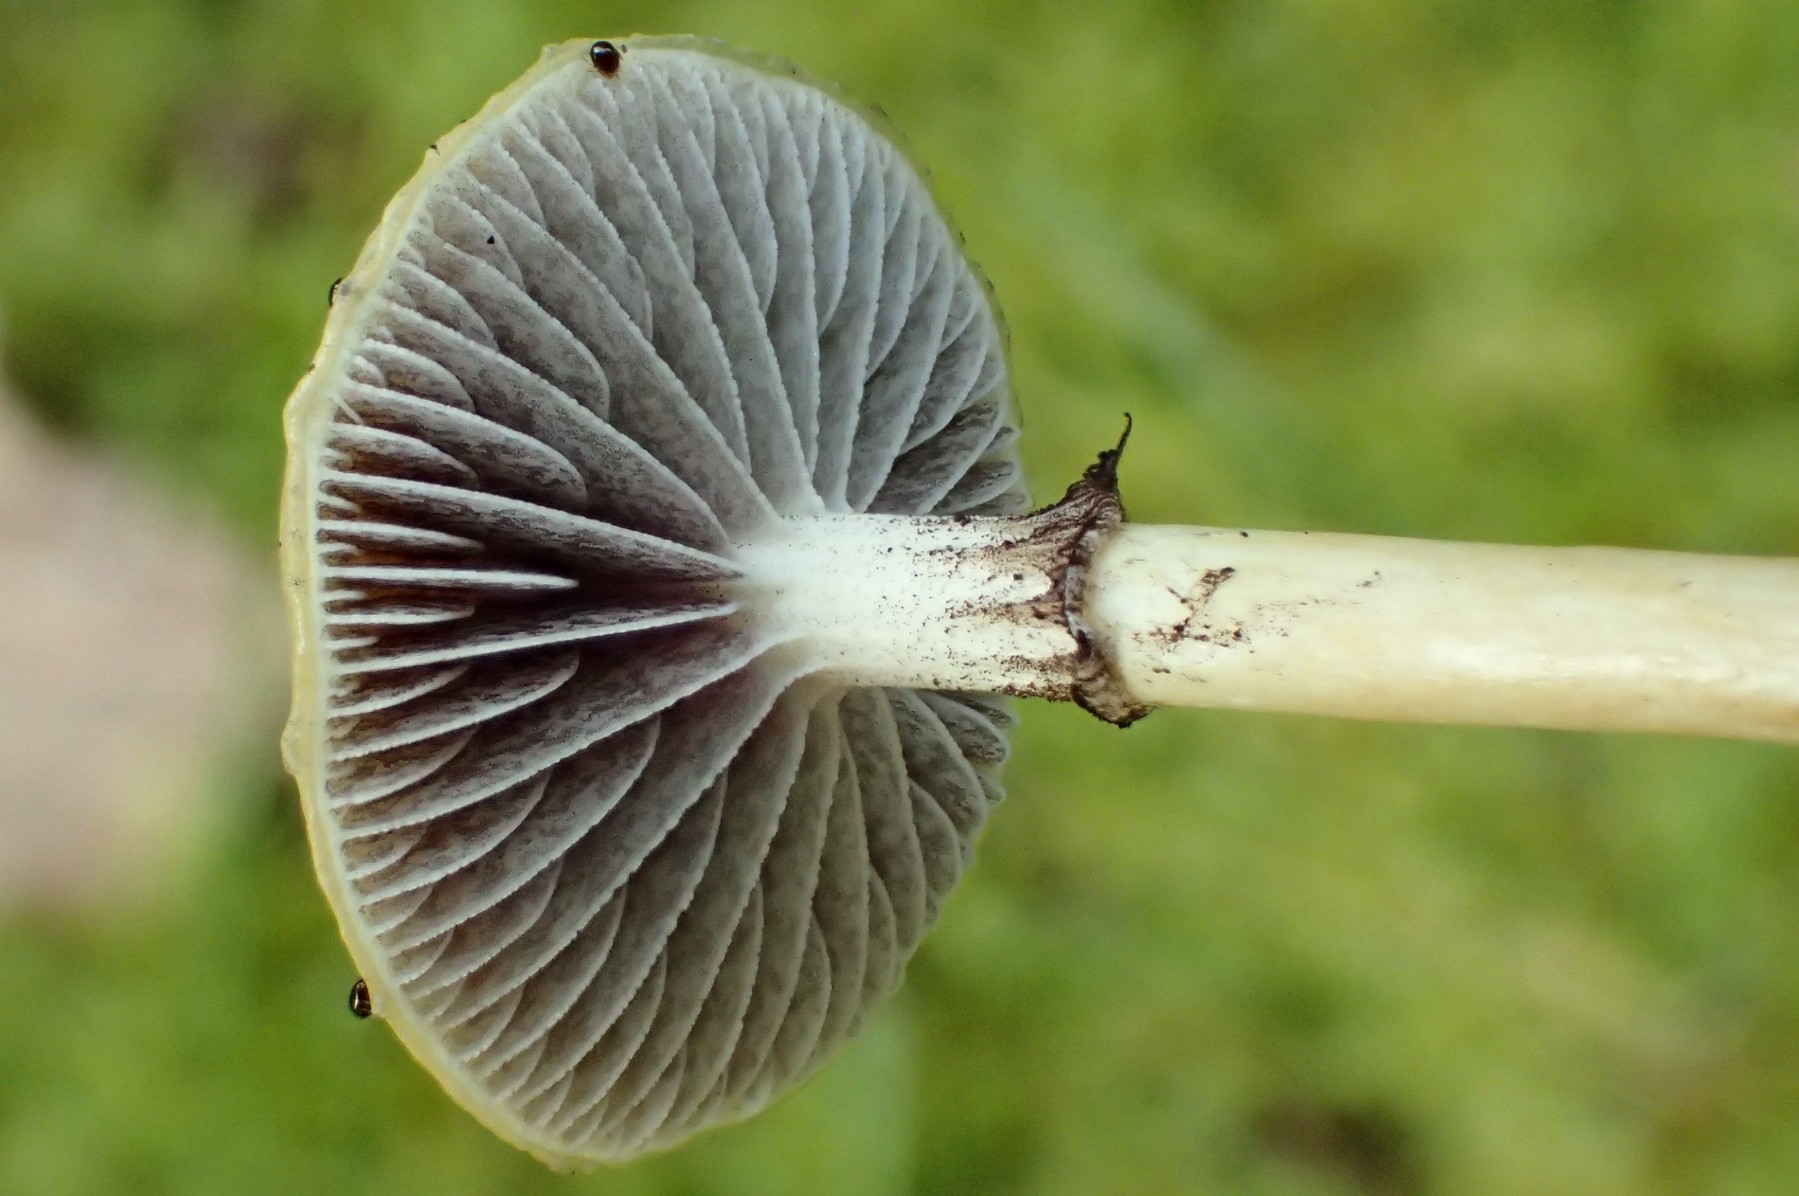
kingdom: Fungi
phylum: Basidiomycota
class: Agaricomycetes
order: Agaricales
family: Strophariaceae
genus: Protostropharia
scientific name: Protostropharia semiglobata
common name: halvkugleformet bredblad
